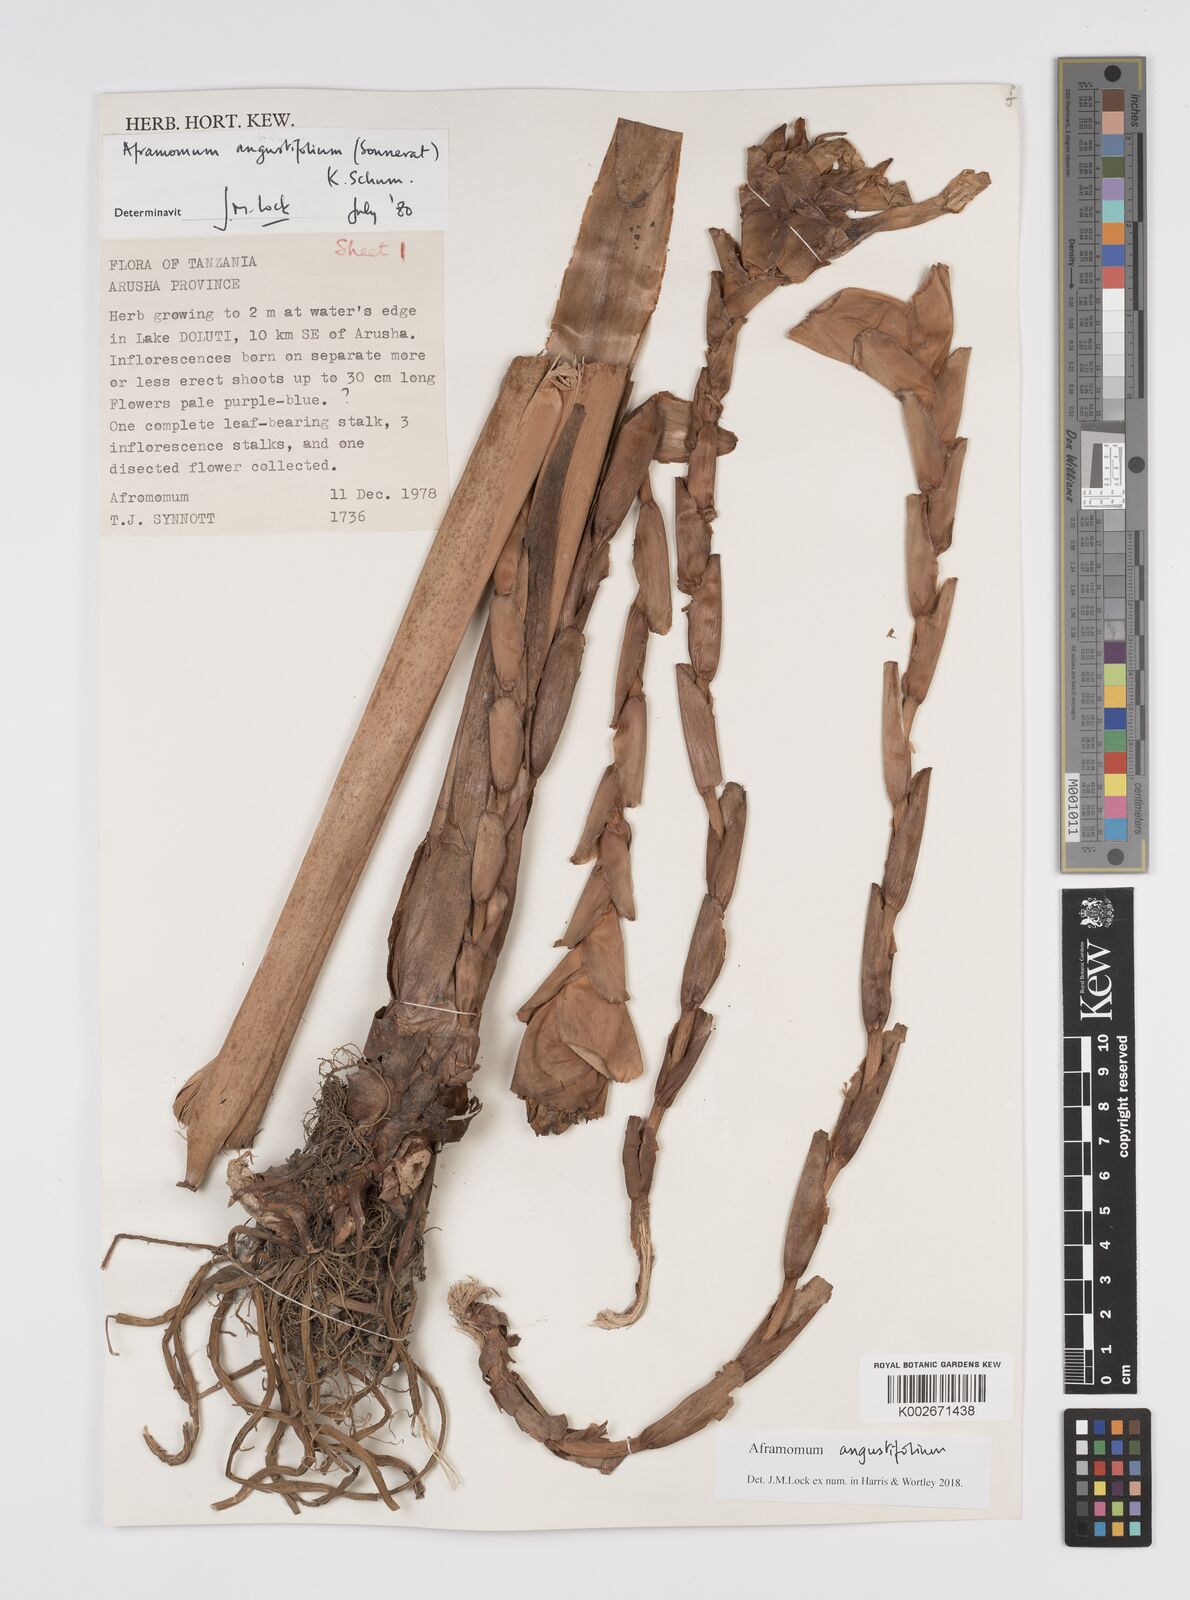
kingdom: Plantae
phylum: Tracheophyta
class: Liliopsida
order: Zingiberales
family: Zingiberaceae
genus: Aframomum
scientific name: Aframomum angustifolium
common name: Guinea grains
